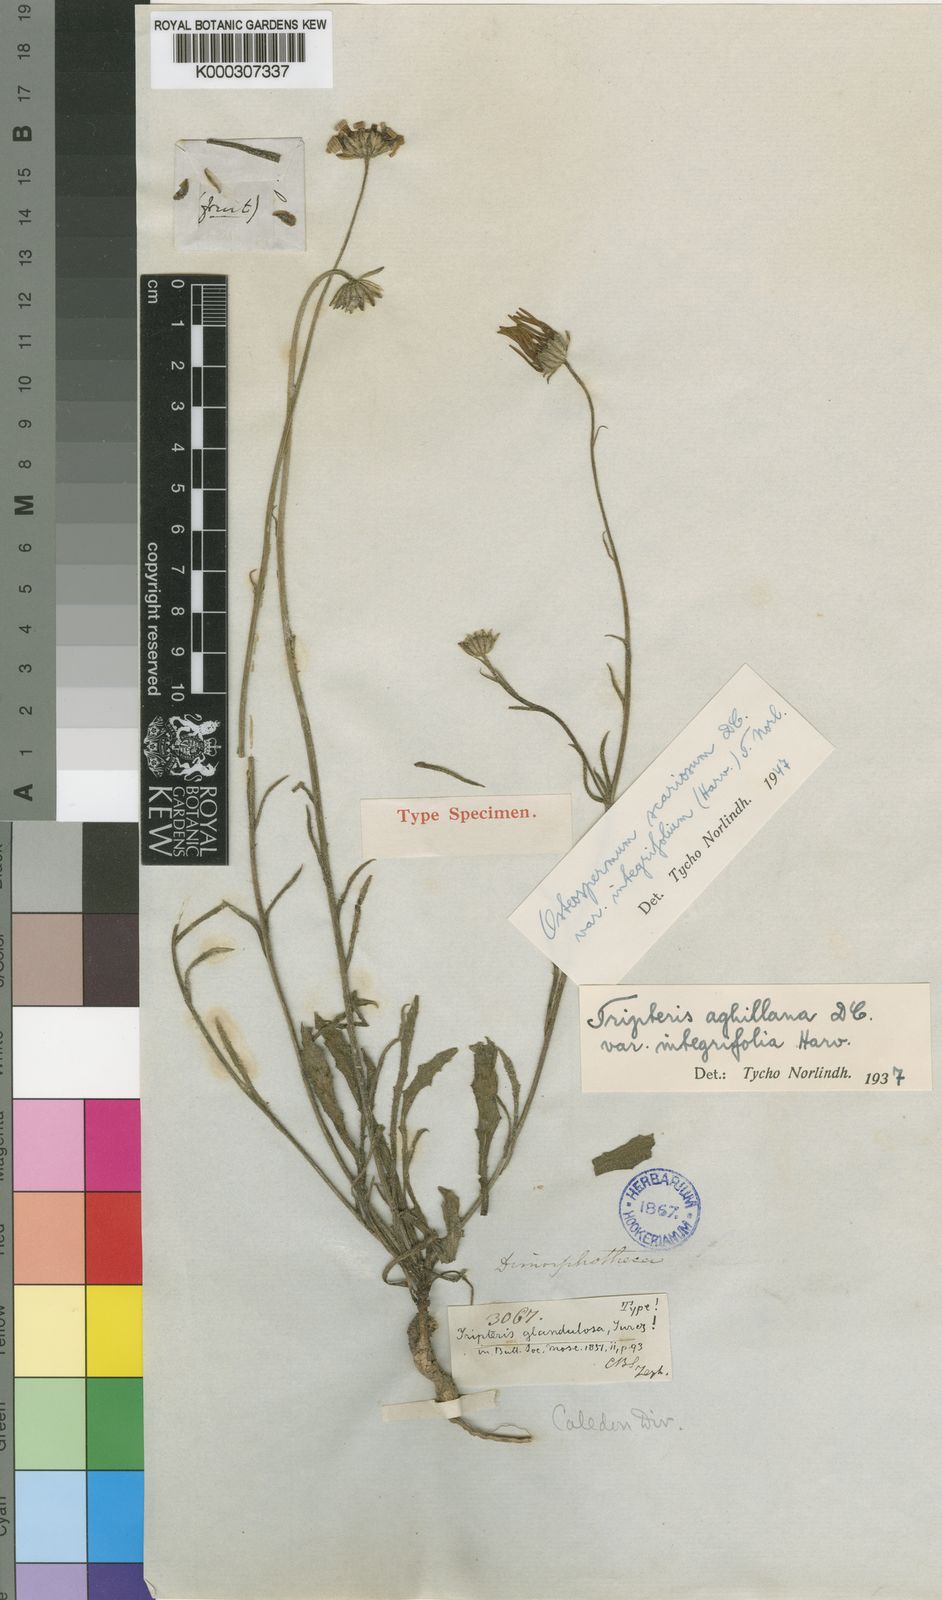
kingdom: Plantae
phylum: Tracheophyta
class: Magnoliopsida
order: Asterales
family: Asteraceae
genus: Osteospermum
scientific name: Osteospermum scariosum
